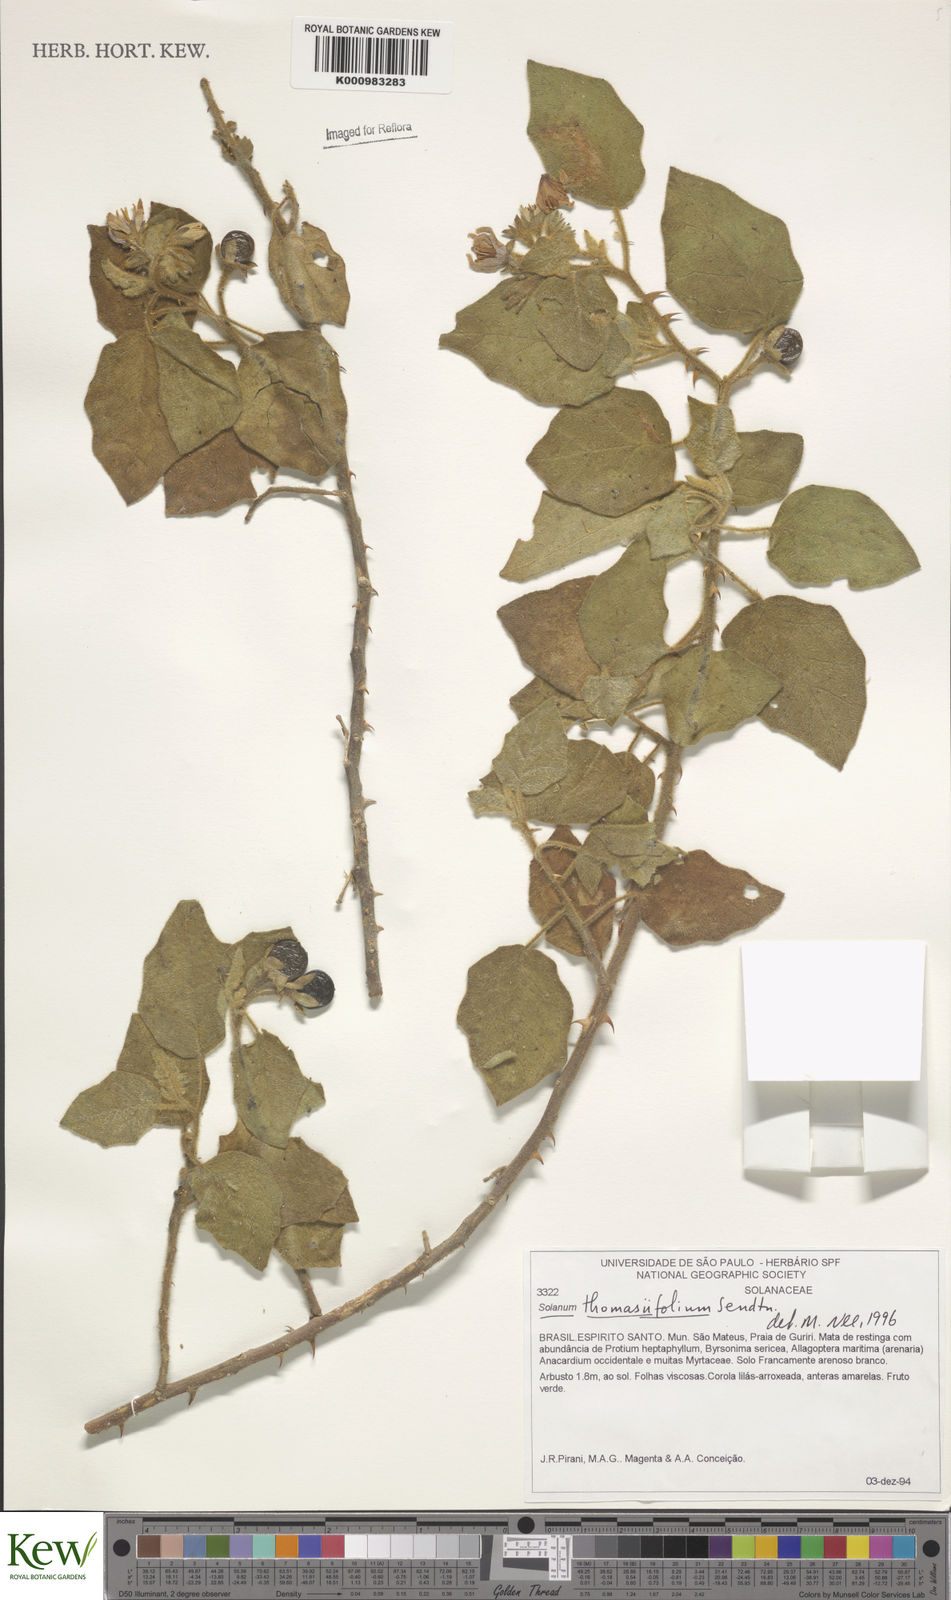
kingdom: Plantae
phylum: Tracheophyta
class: Magnoliopsida
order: Solanales
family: Solanaceae
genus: Solanum
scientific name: Solanum thomasiifolium
